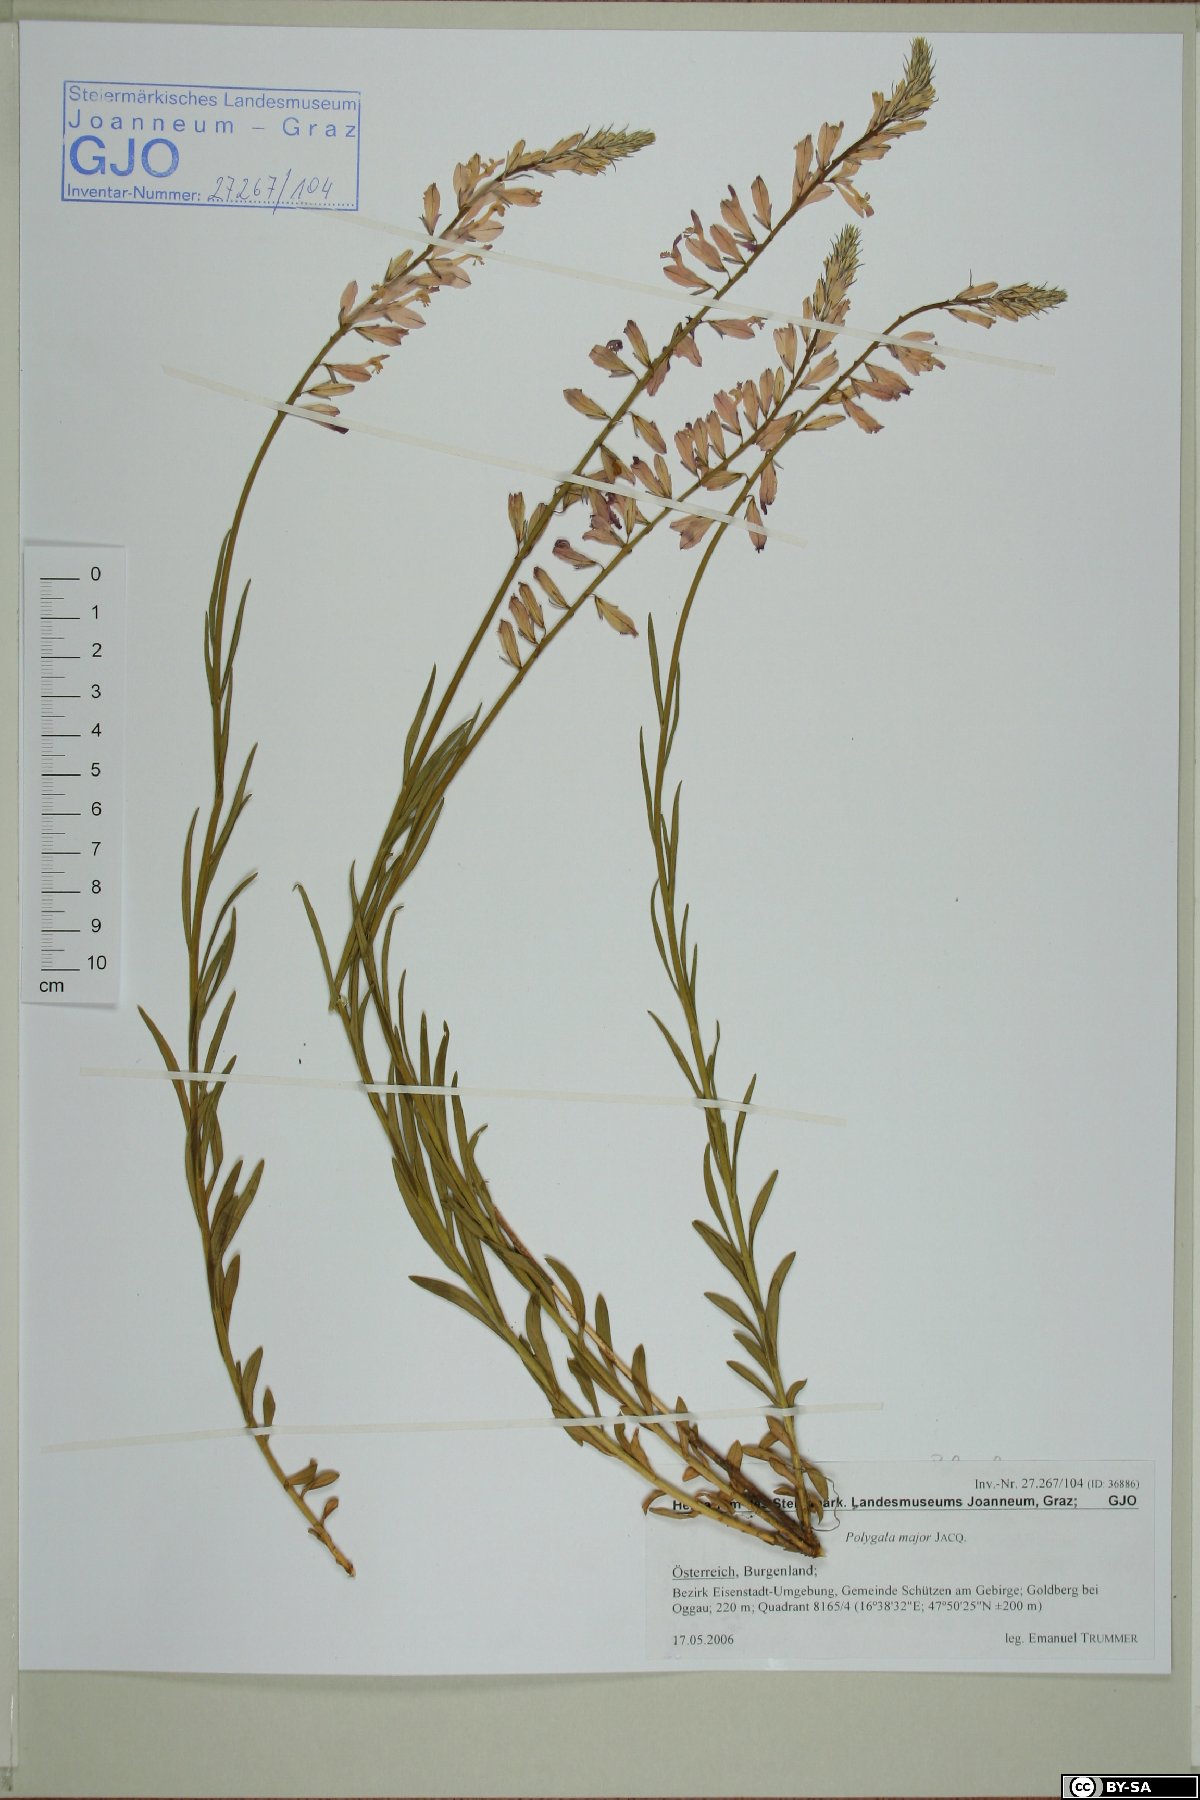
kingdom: Plantae
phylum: Tracheophyta
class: Magnoliopsida
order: Fabales
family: Polygalaceae
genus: Polygala
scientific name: Polygala major
